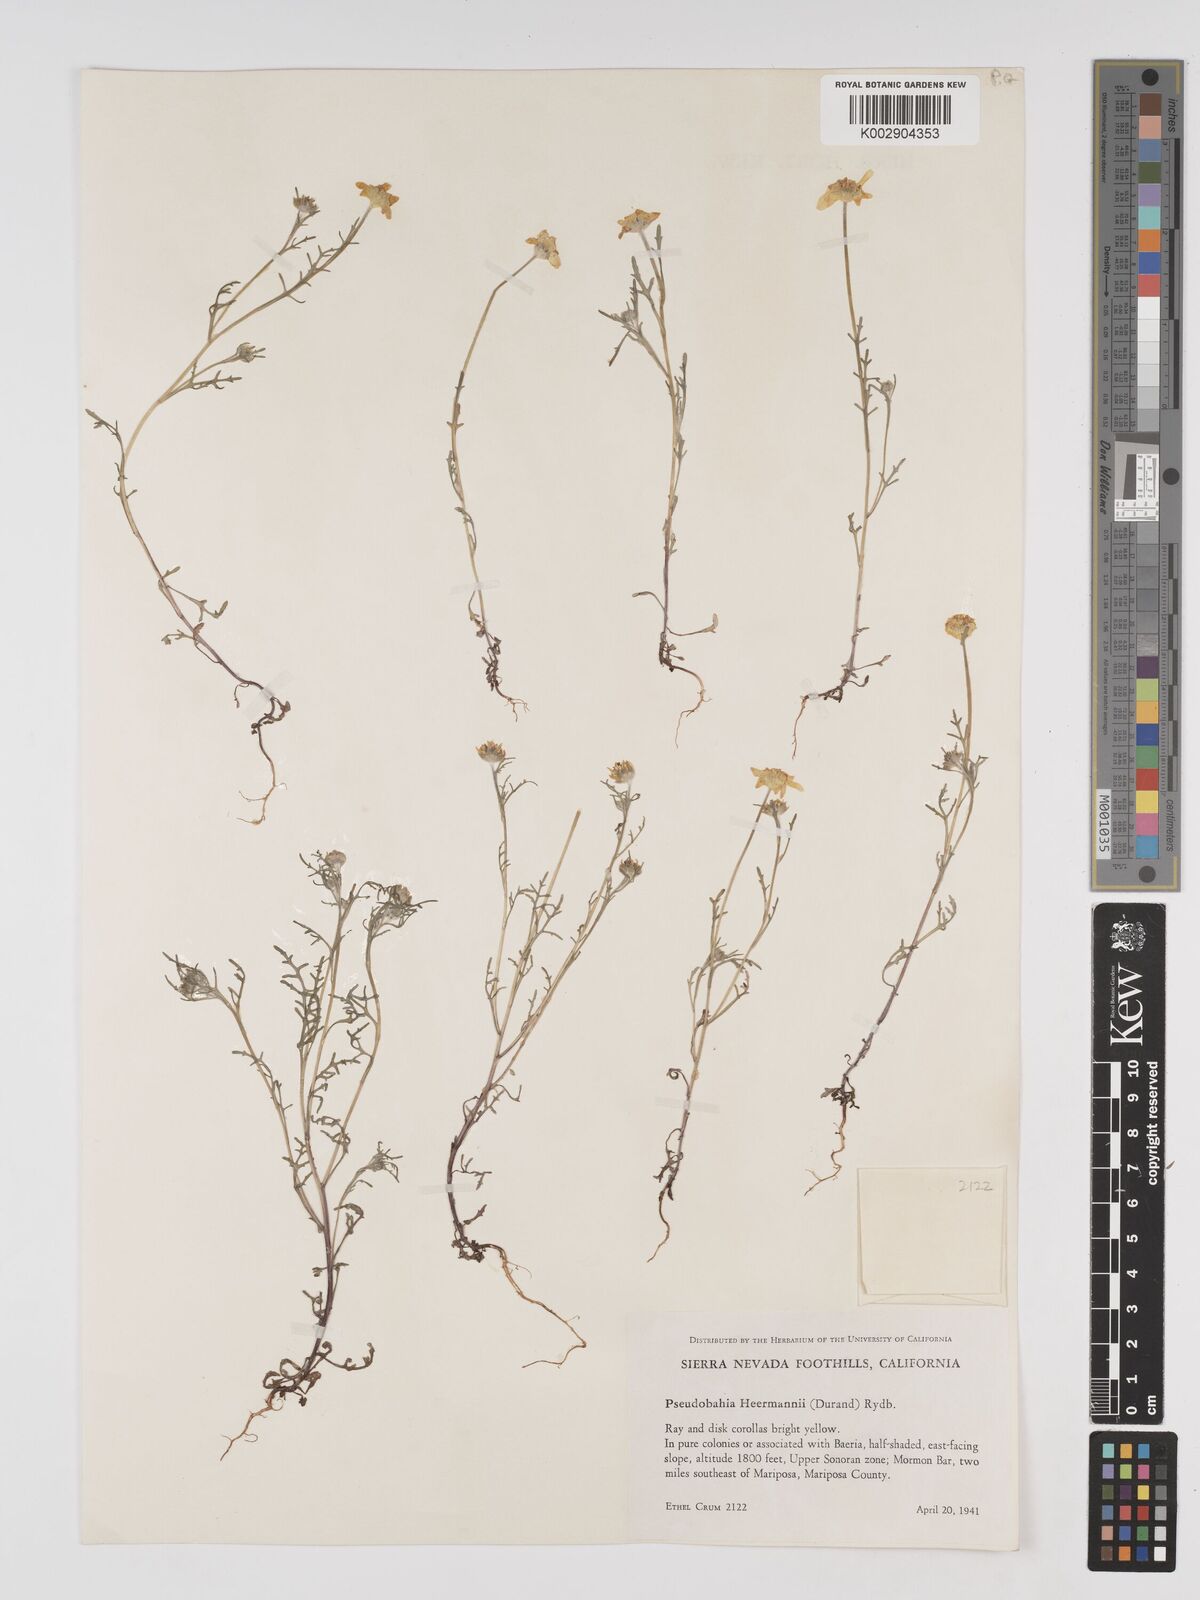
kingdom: Plantae
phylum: Tracheophyta
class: Magnoliopsida
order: Asterales
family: Asteraceae
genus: Eriophyllum
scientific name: Eriophyllum jepsonii
